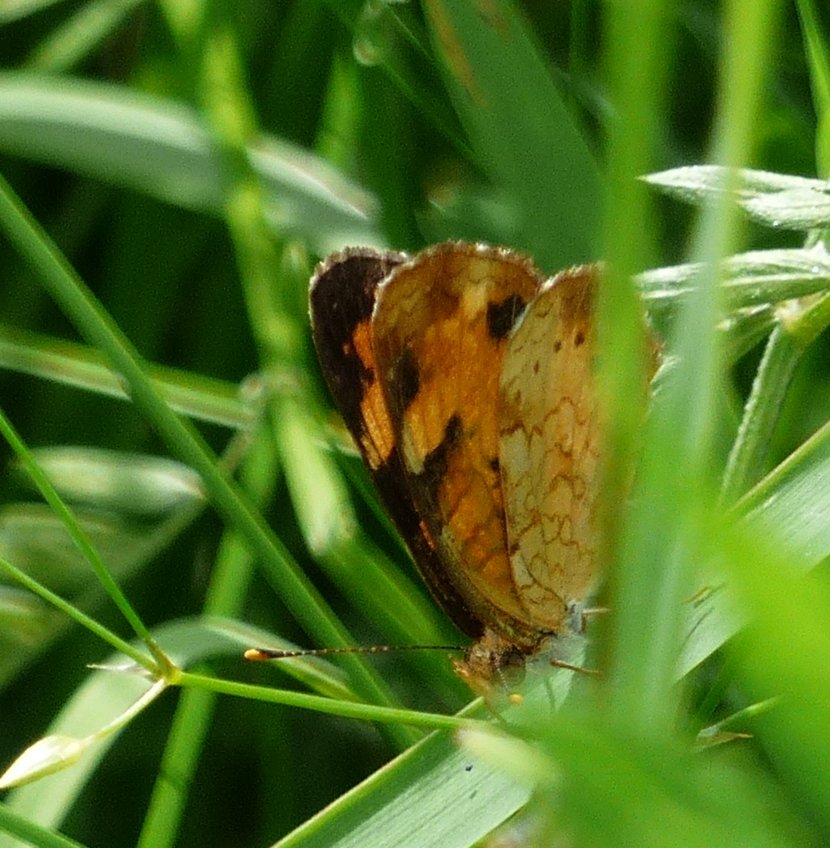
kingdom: Animalia
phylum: Arthropoda
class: Insecta
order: Lepidoptera
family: Nymphalidae
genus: Phyciodes
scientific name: Phyciodes tharos
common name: Northern Crescent
